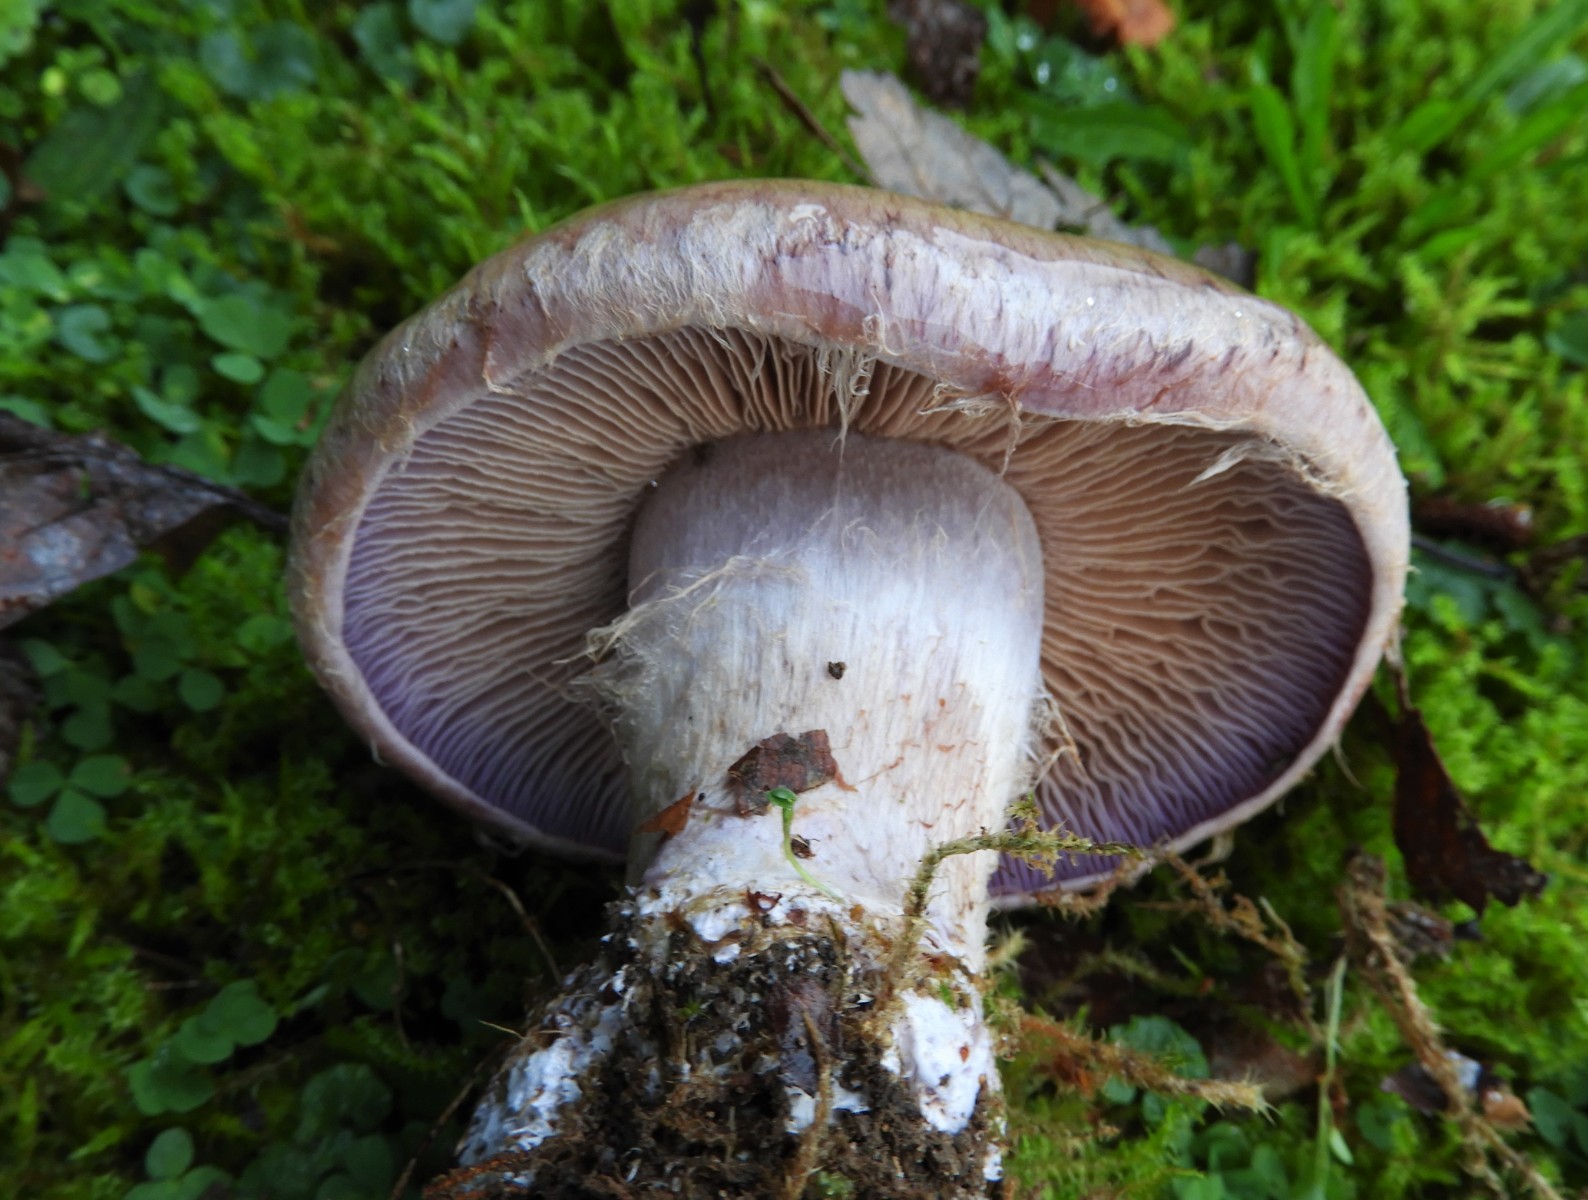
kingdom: Fungi
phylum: Basidiomycota
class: Agaricomycetes
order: Agaricales
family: Cortinariaceae
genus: Cortinarius
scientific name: Cortinarius largus
